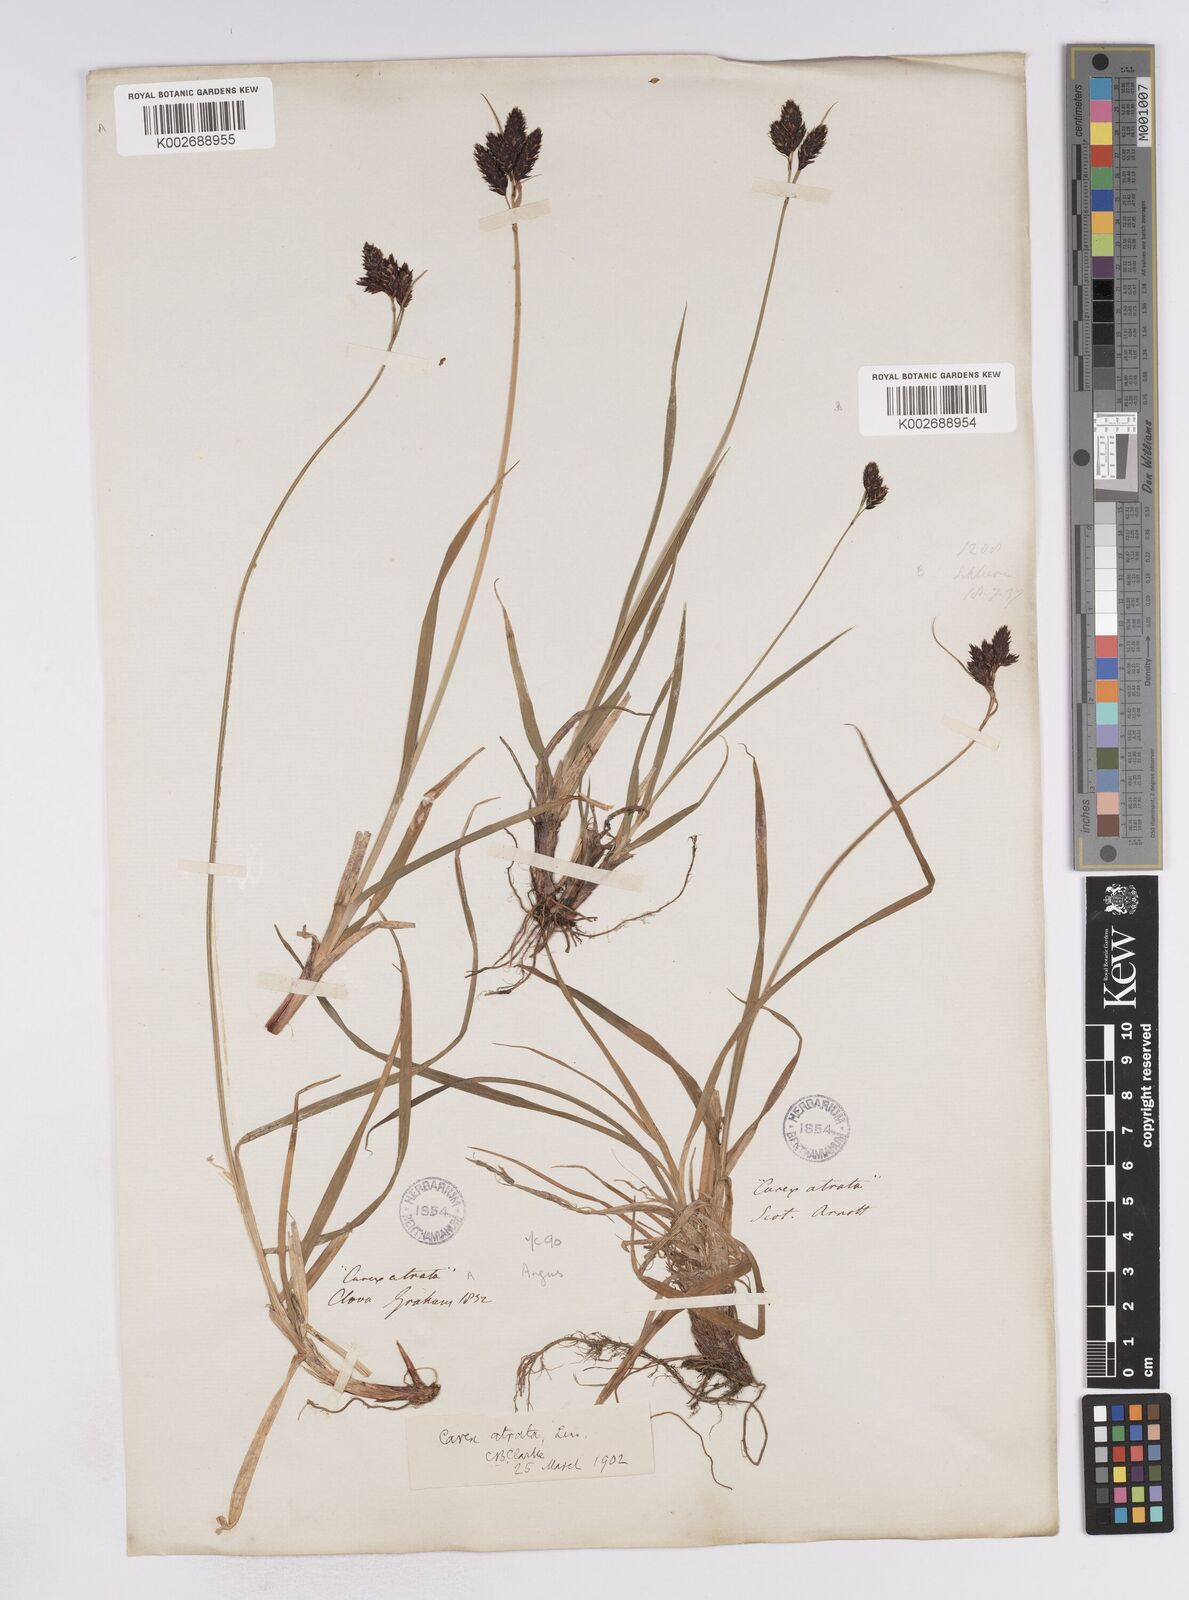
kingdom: Plantae
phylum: Tracheophyta
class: Liliopsida
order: Poales
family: Cyperaceae
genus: Carex
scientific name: Carex atrata
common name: Black alpine sedge
